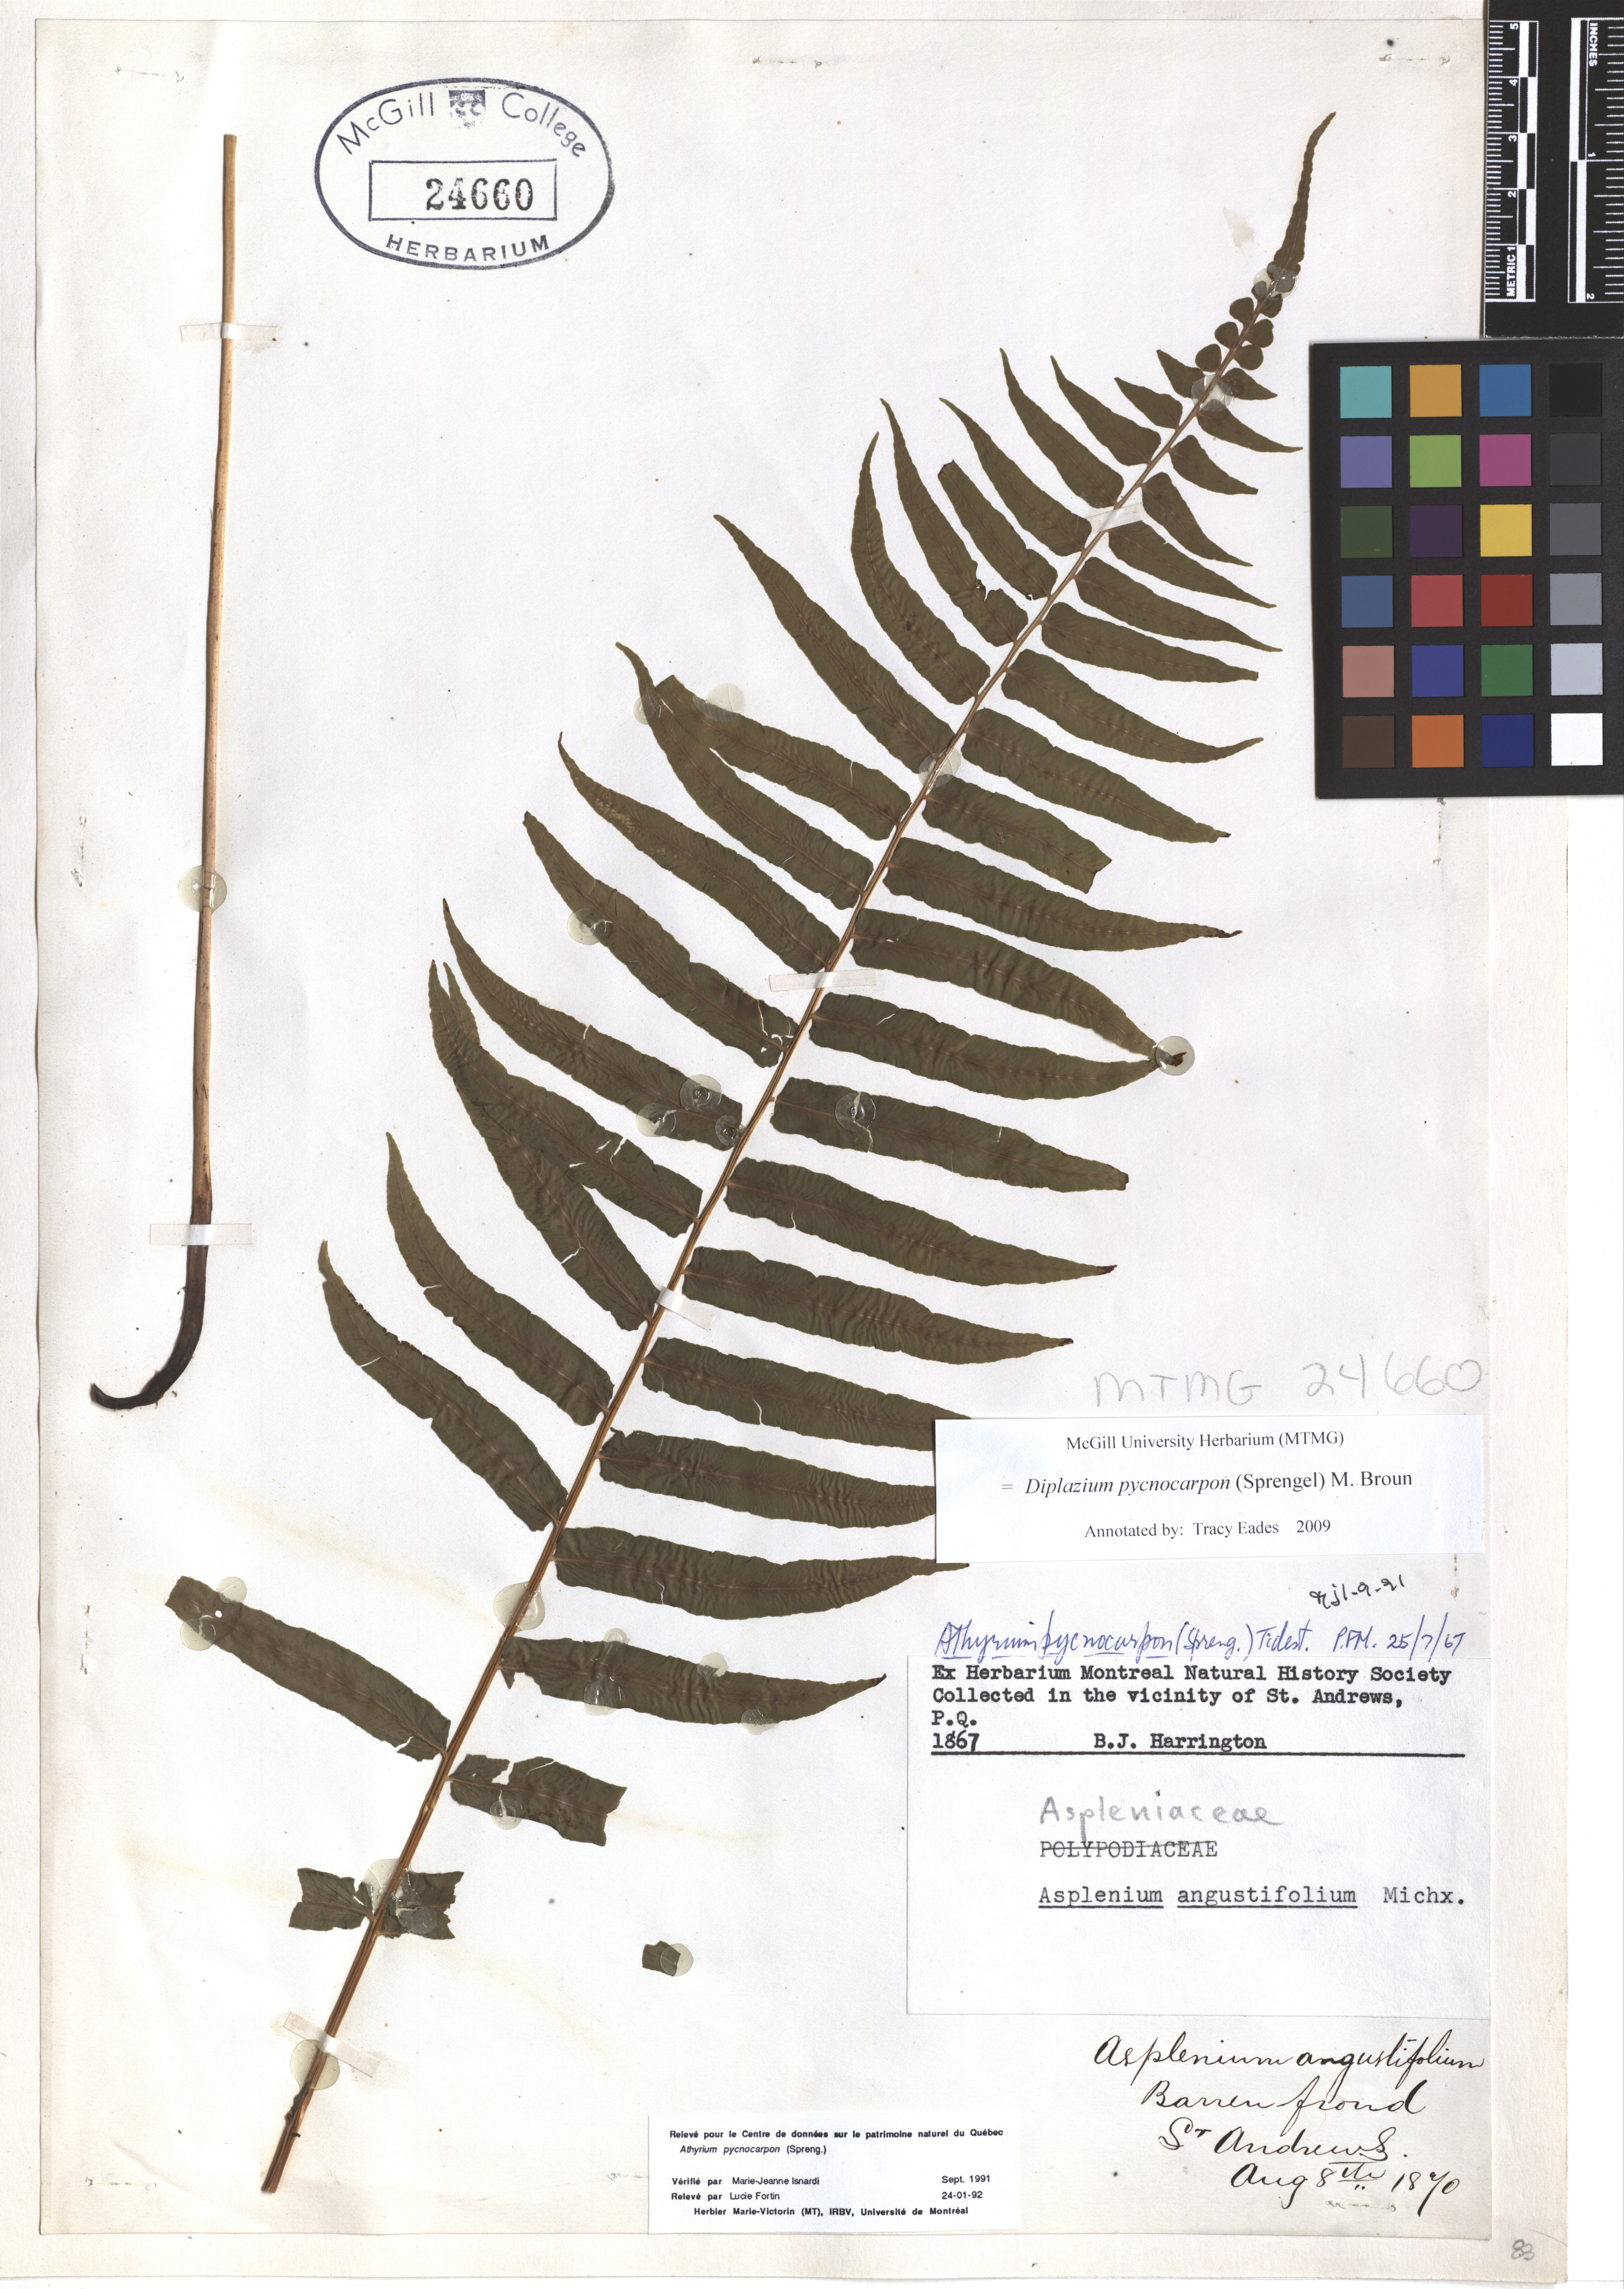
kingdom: Plantae
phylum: Tracheophyta
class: Polypodiopsida
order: Polypodiales
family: Diplaziopsidaceae
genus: Homalosorus
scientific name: Homalosorus pycnocarpos
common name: Glade fern
